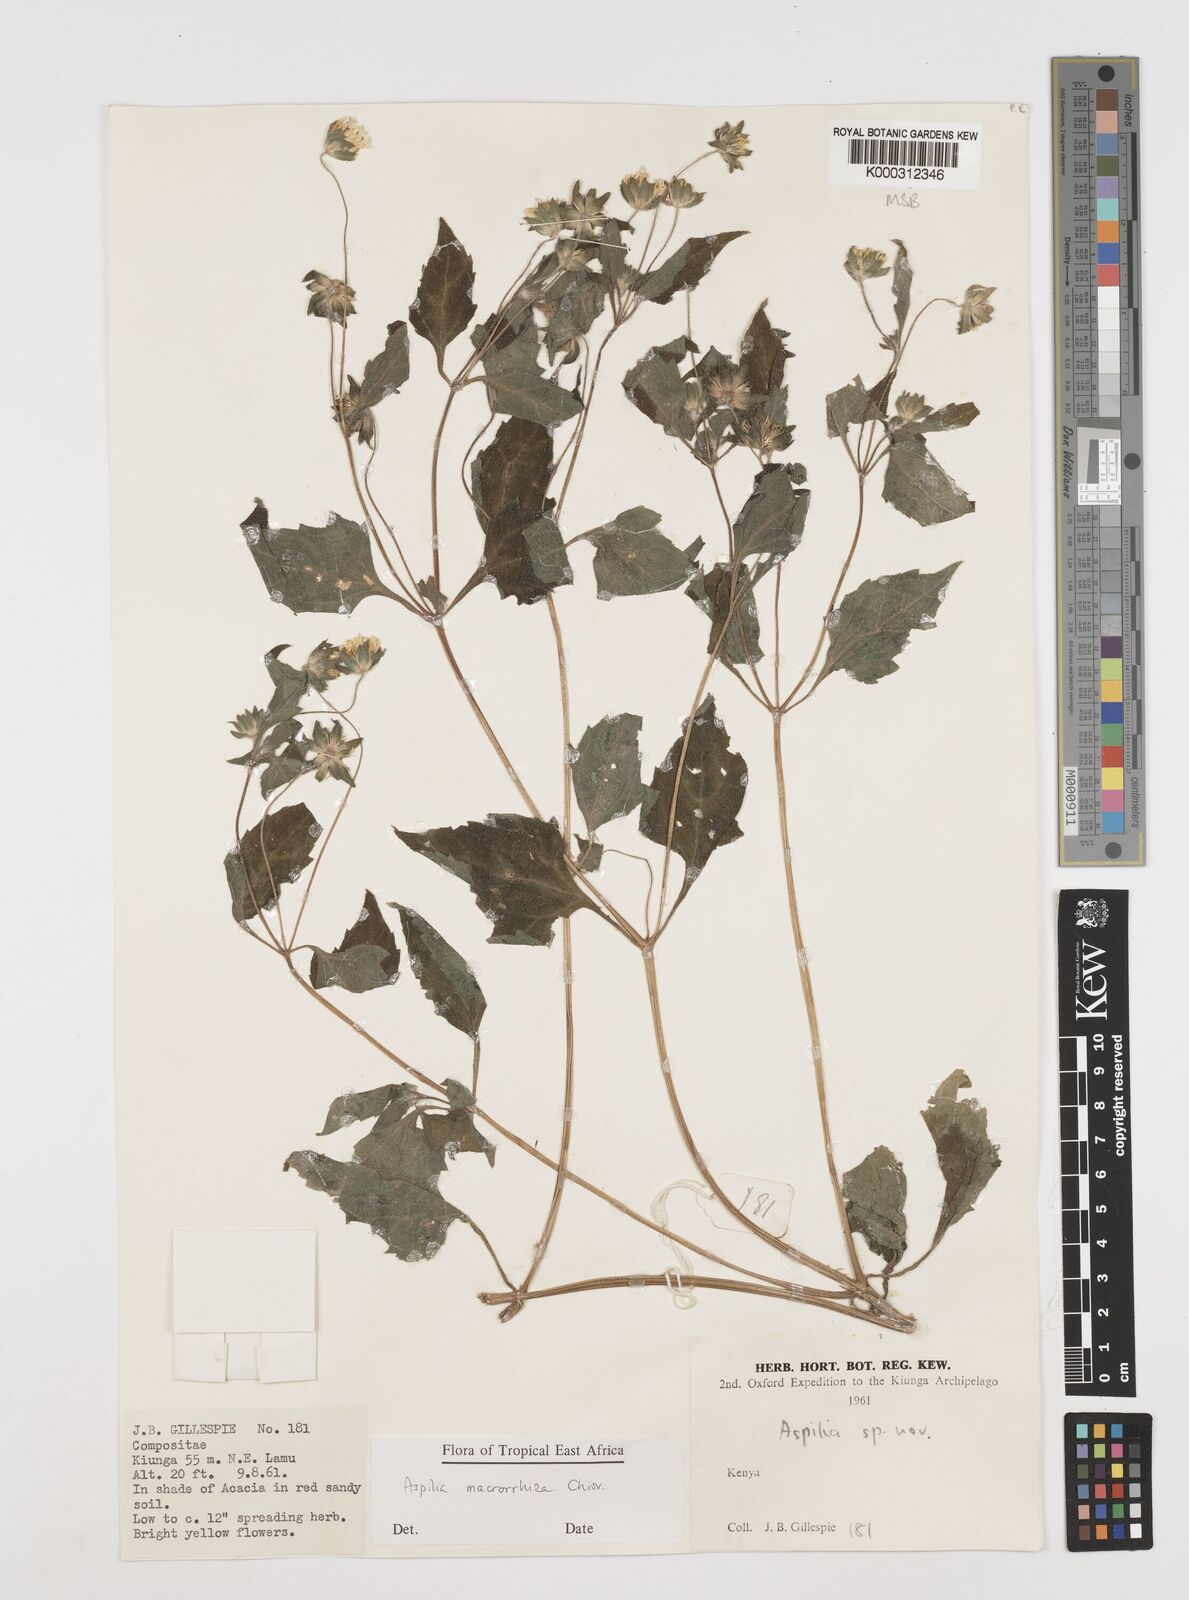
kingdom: Plantae
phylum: Tracheophyta
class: Magnoliopsida
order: Asterales
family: Asteraceae
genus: Aspilia
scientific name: Aspilia macrorrhiza
